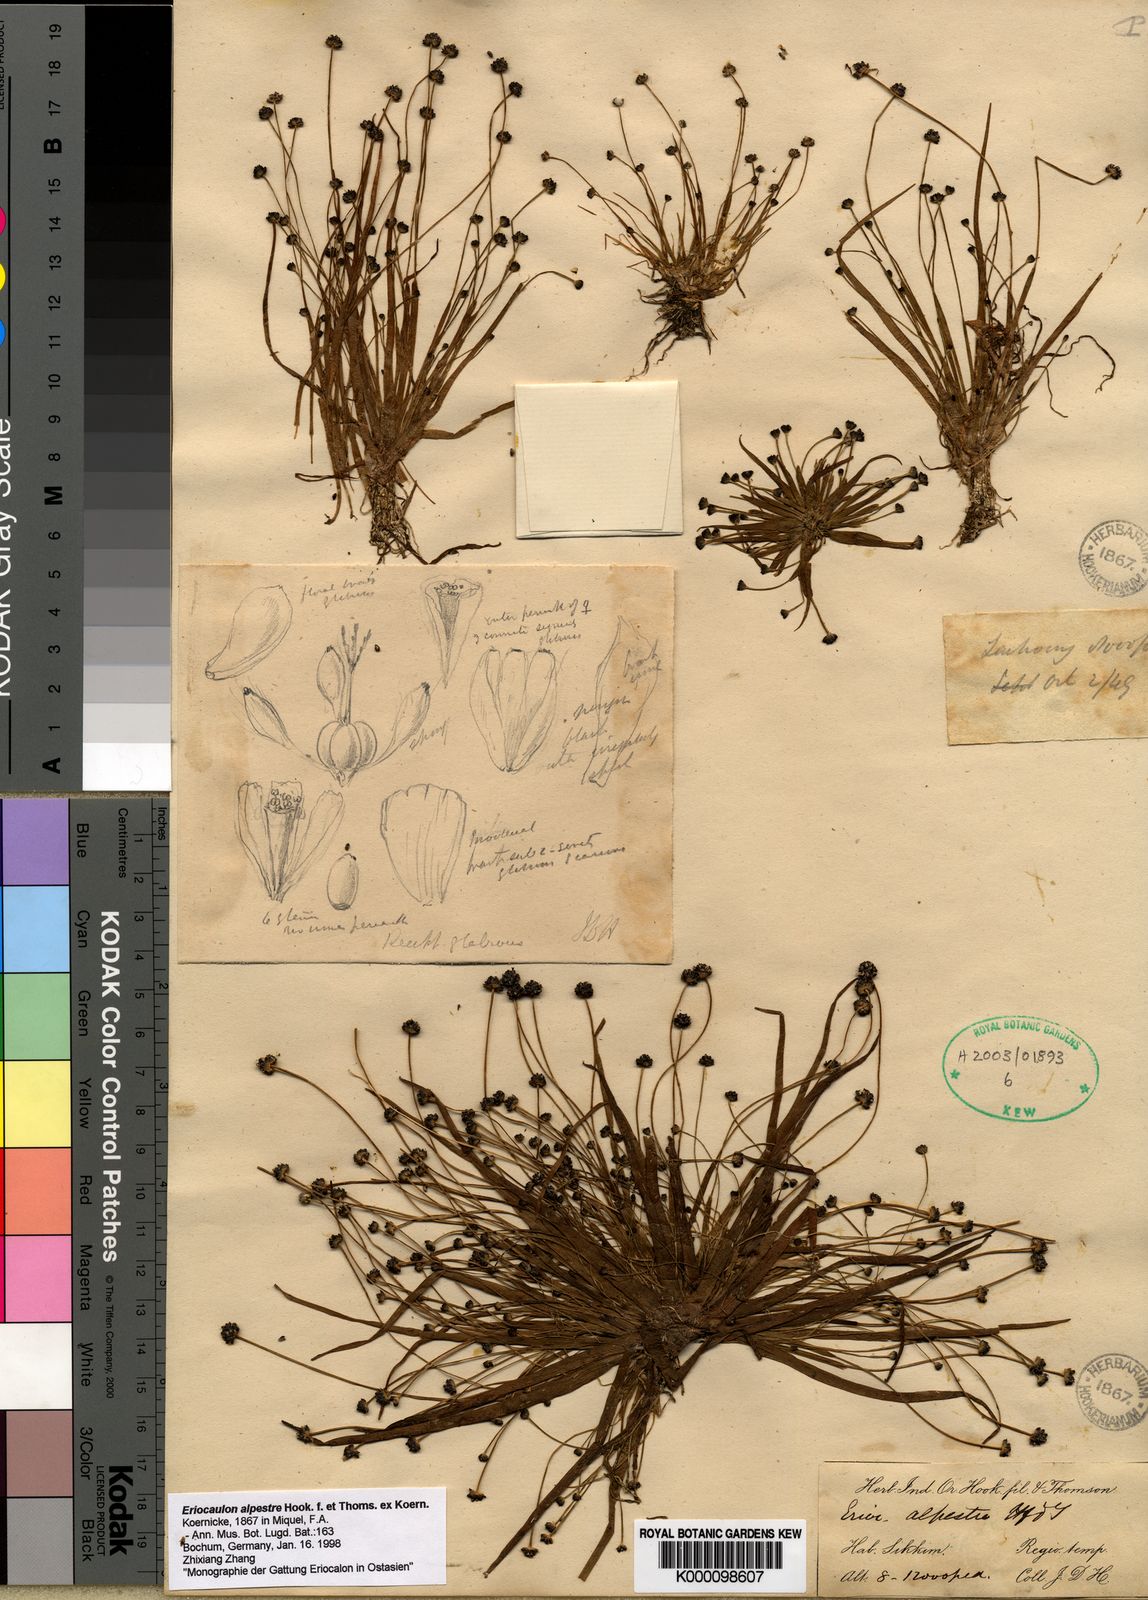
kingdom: Plantae
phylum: Tracheophyta
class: Liliopsida
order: Poales
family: Eriocaulaceae
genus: Eriocaulon
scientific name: Eriocaulon
